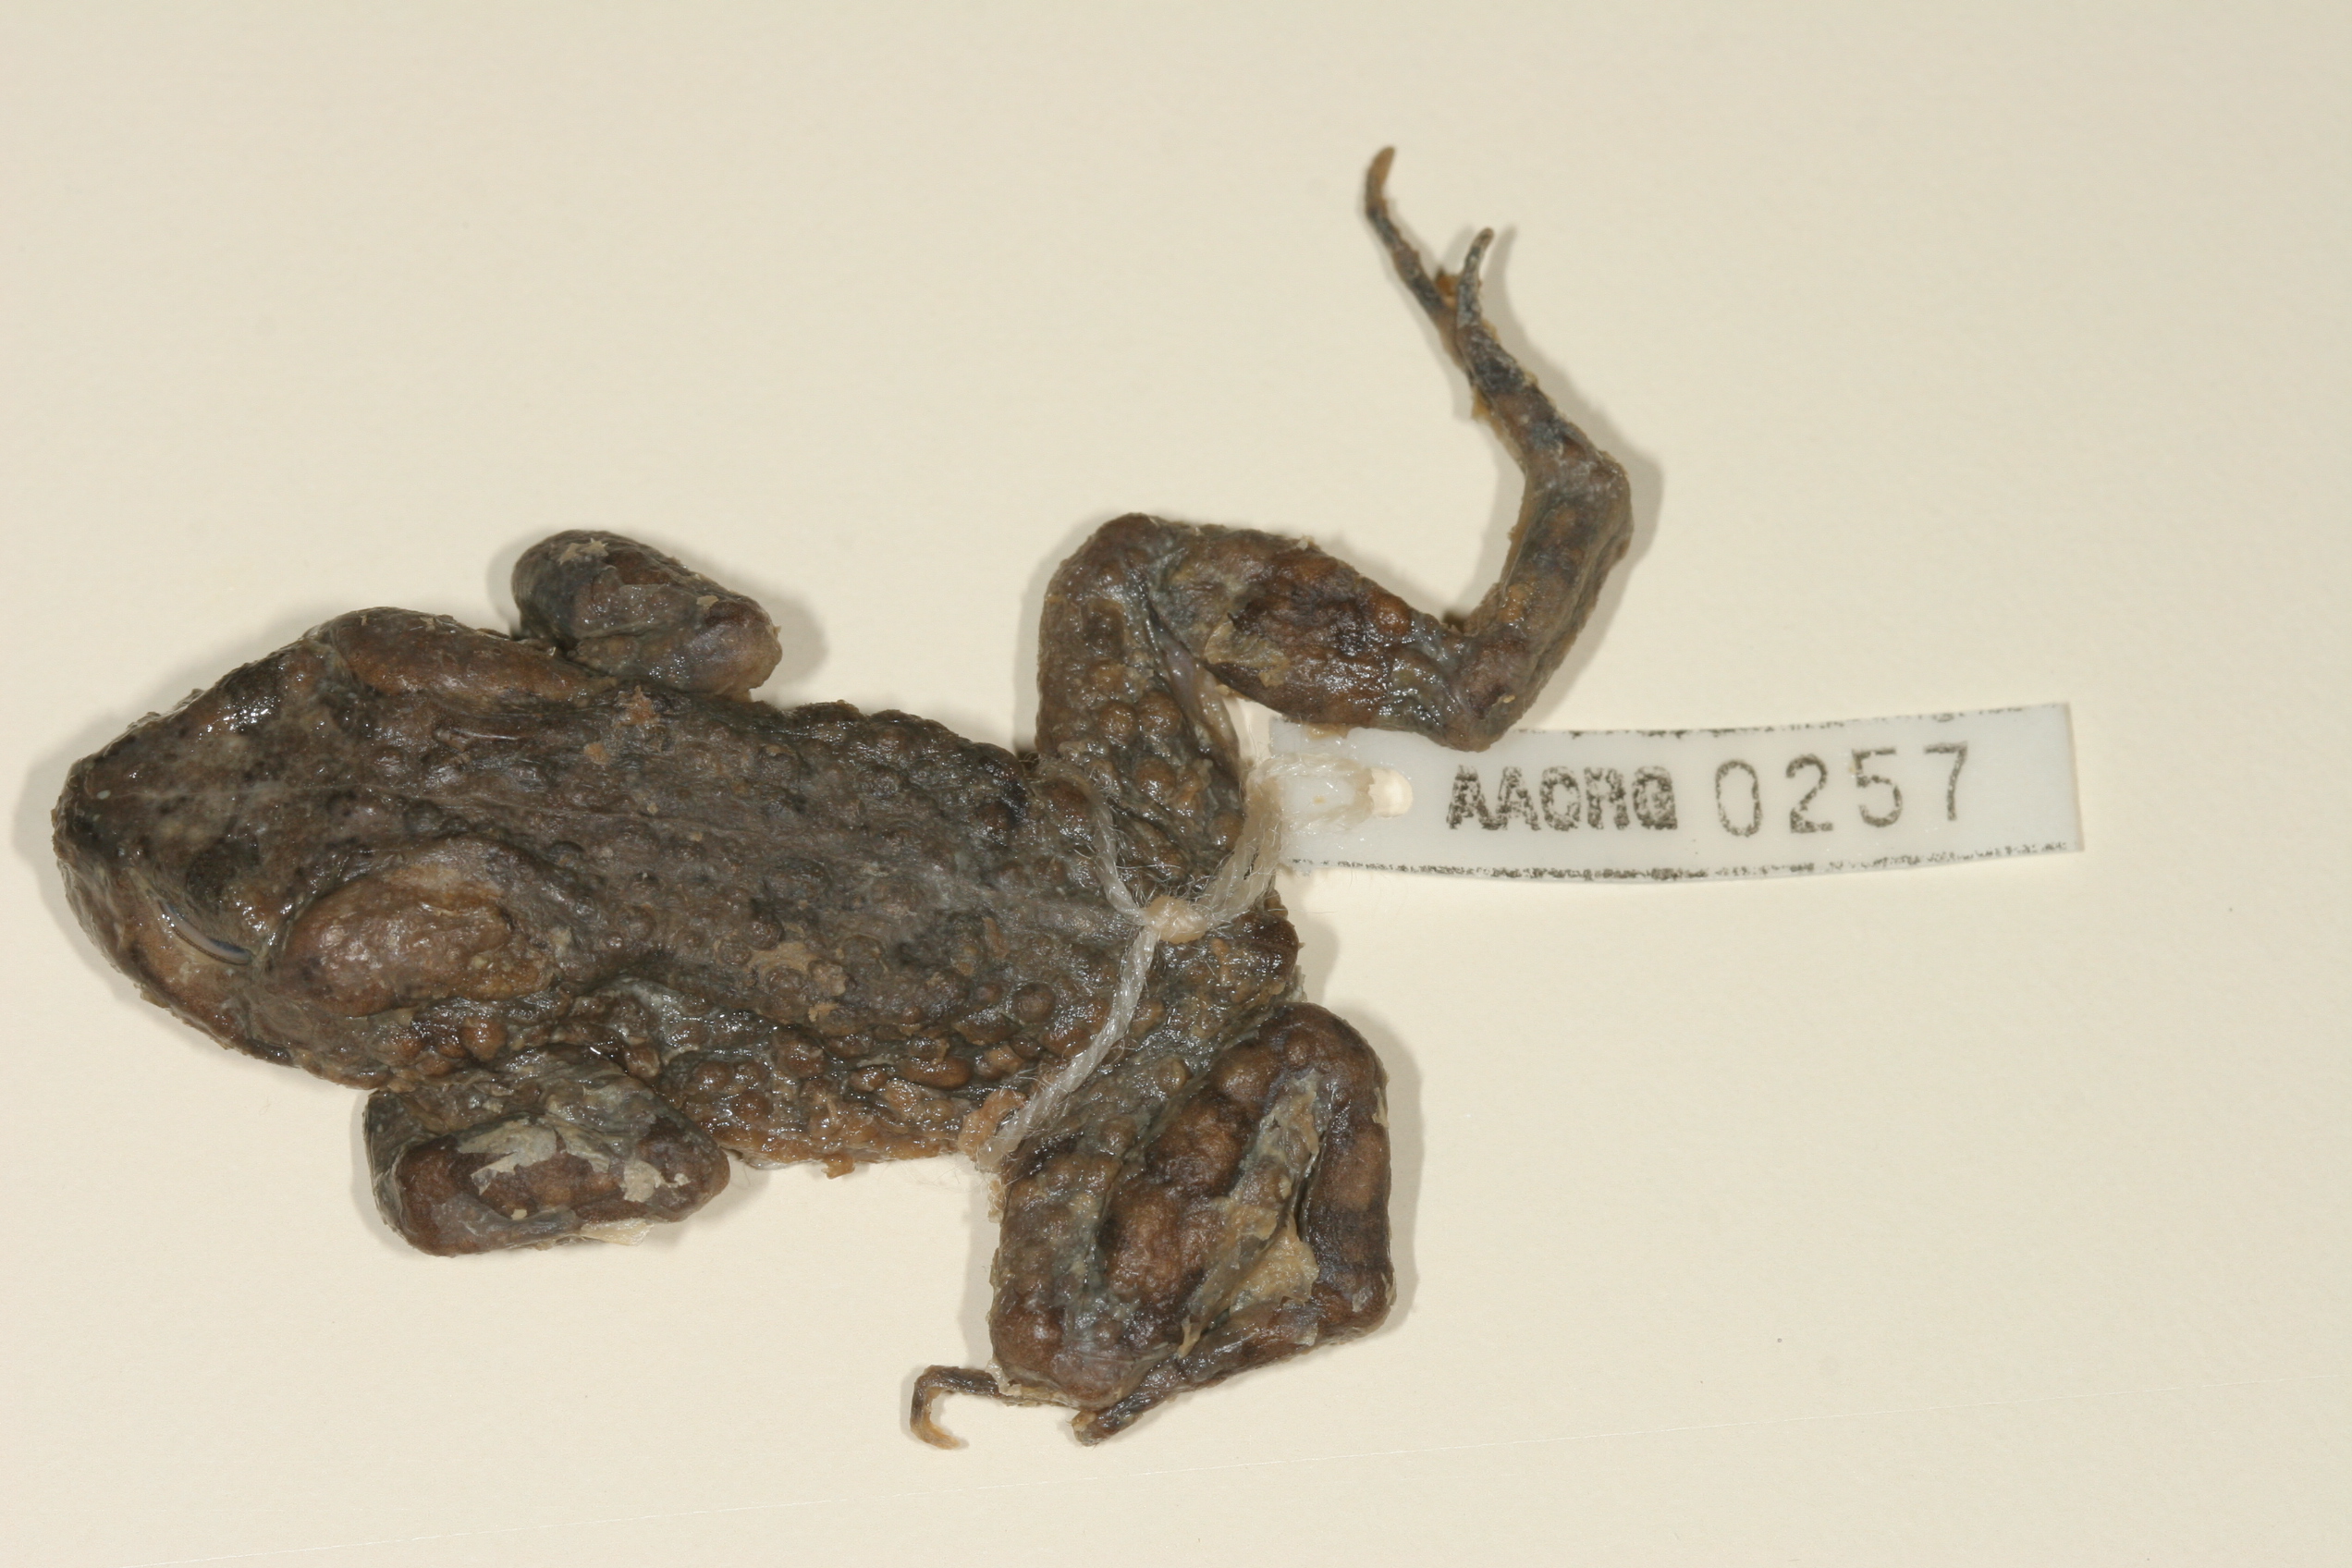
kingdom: Animalia
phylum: Chordata
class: Amphibia
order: Anura
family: Bufonidae
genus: Vandijkophrynus
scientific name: Vandijkophrynus robinsoni
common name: Paradise toad
